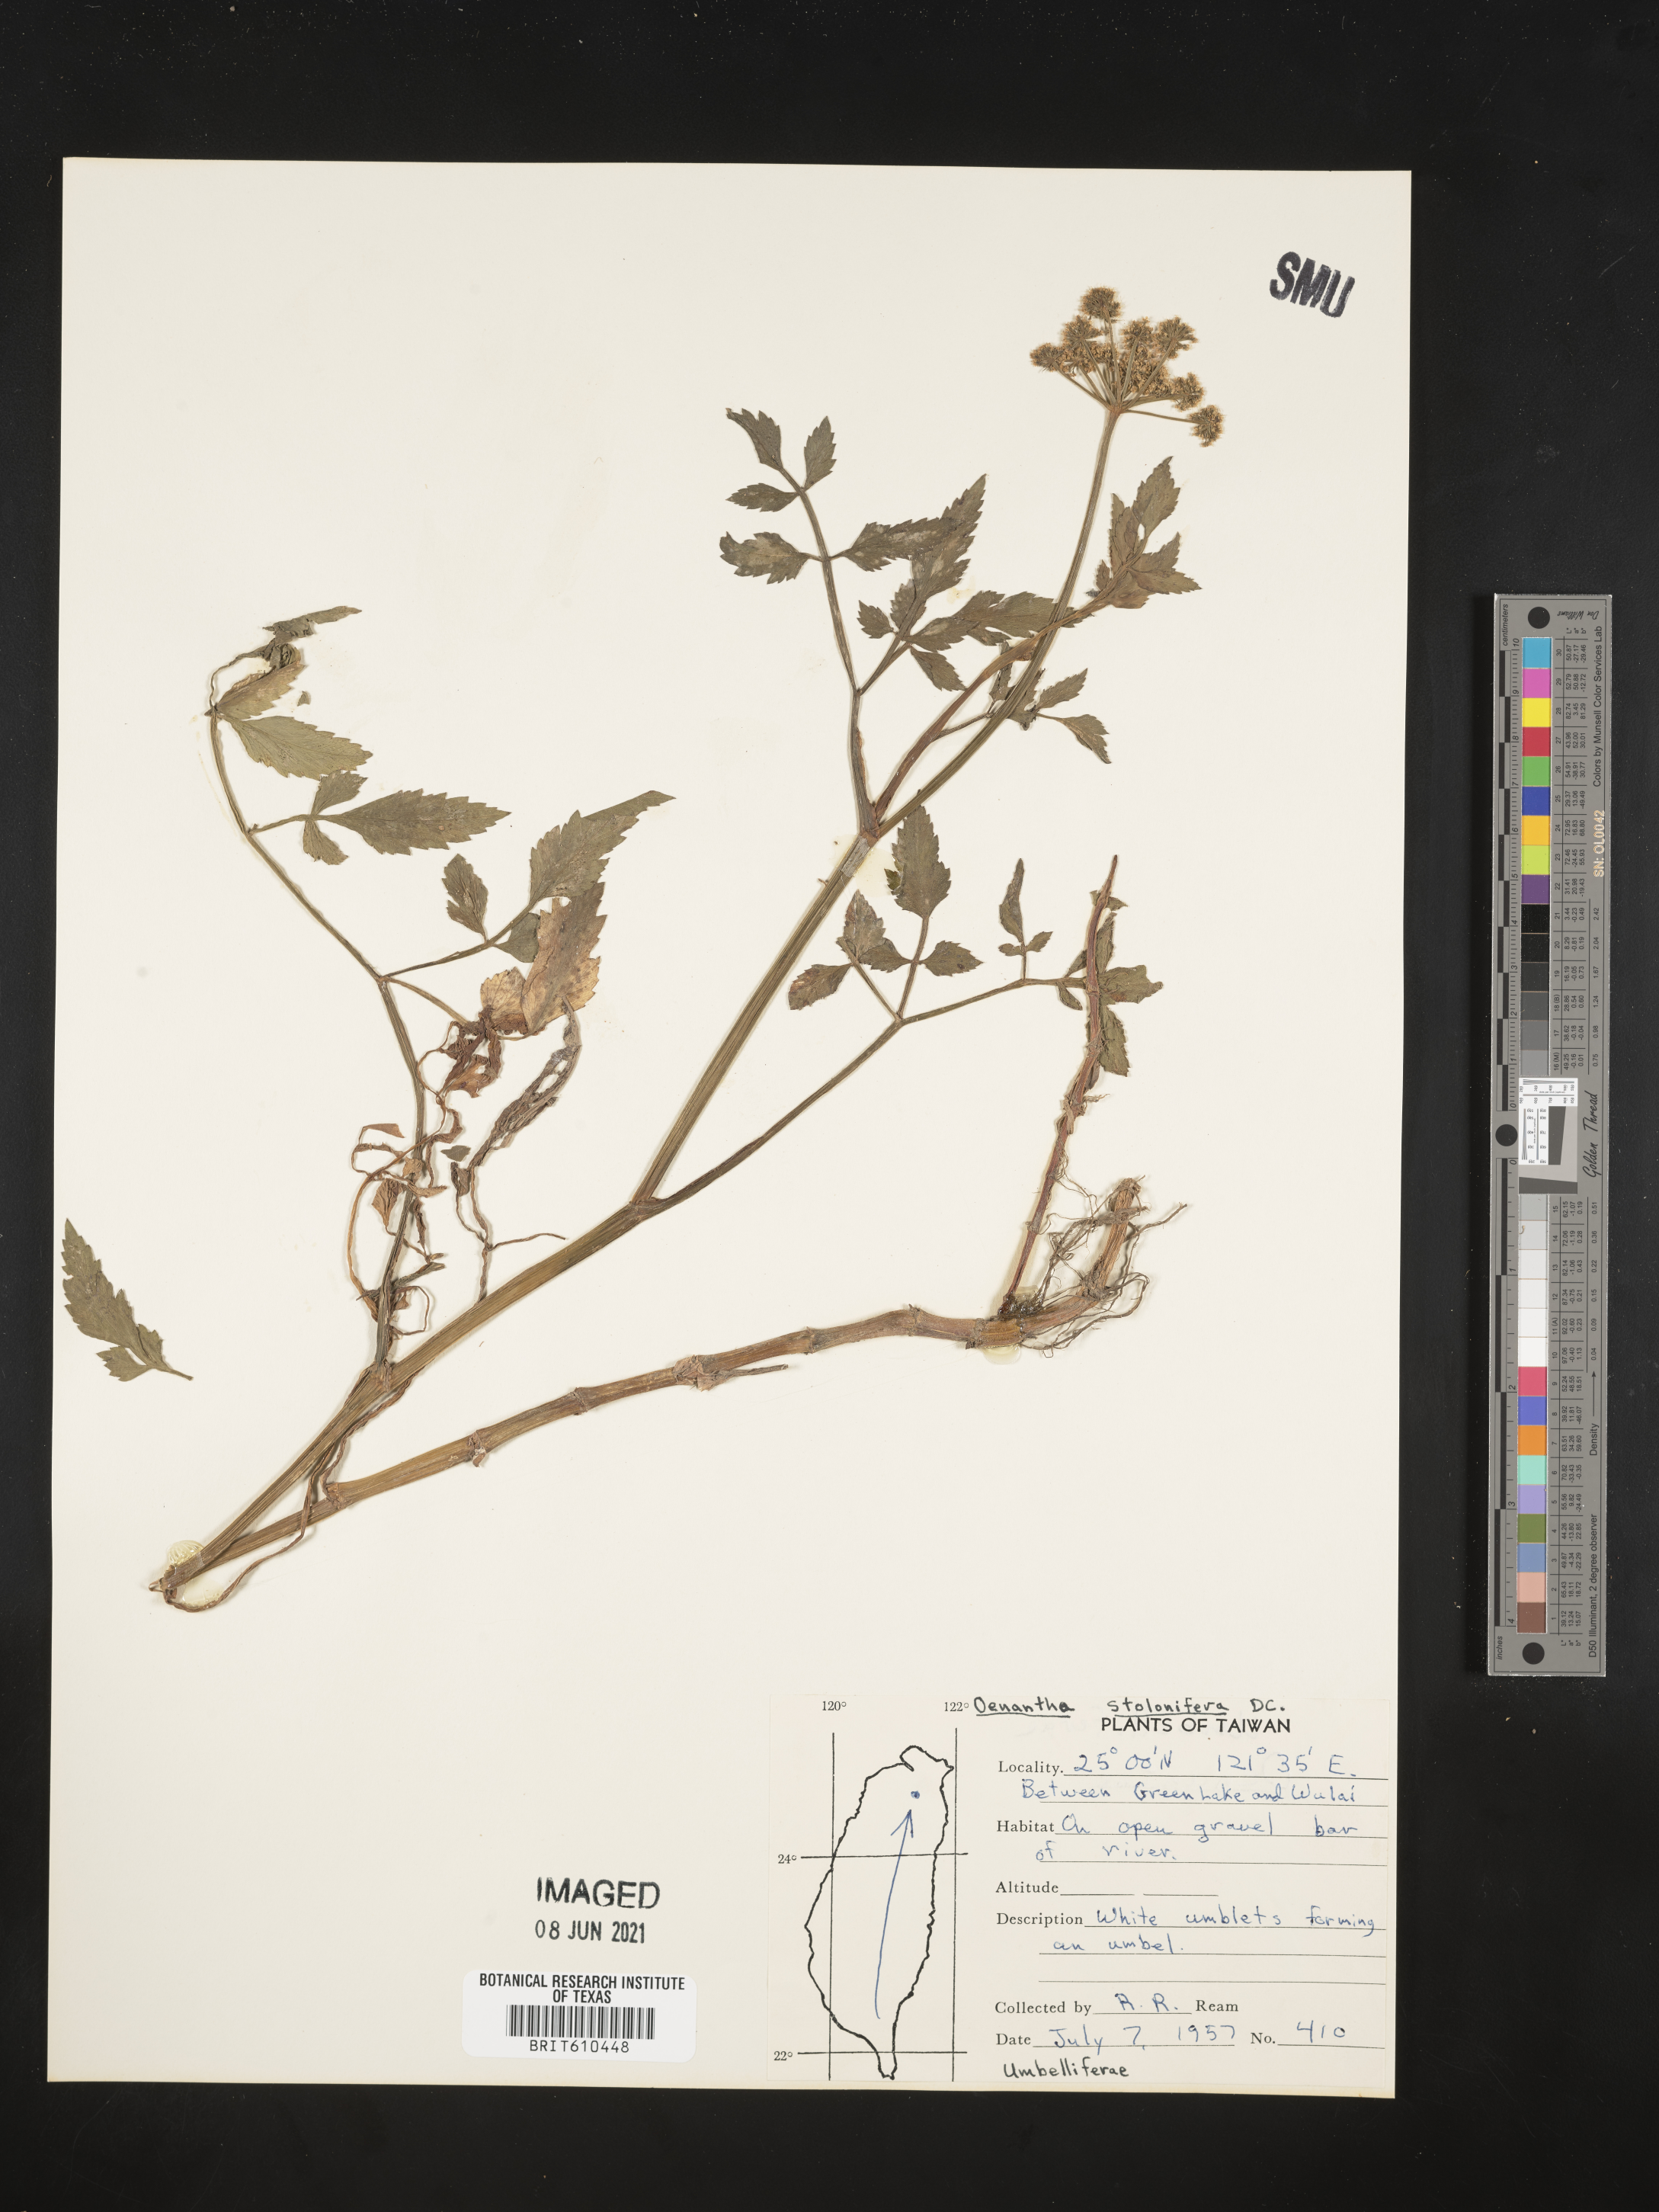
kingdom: Plantae
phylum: Tracheophyta
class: Magnoliopsida
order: Apiales
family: Apiaceae
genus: Oenanthe
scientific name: Oenanthe javanica
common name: Java water-dropwort
